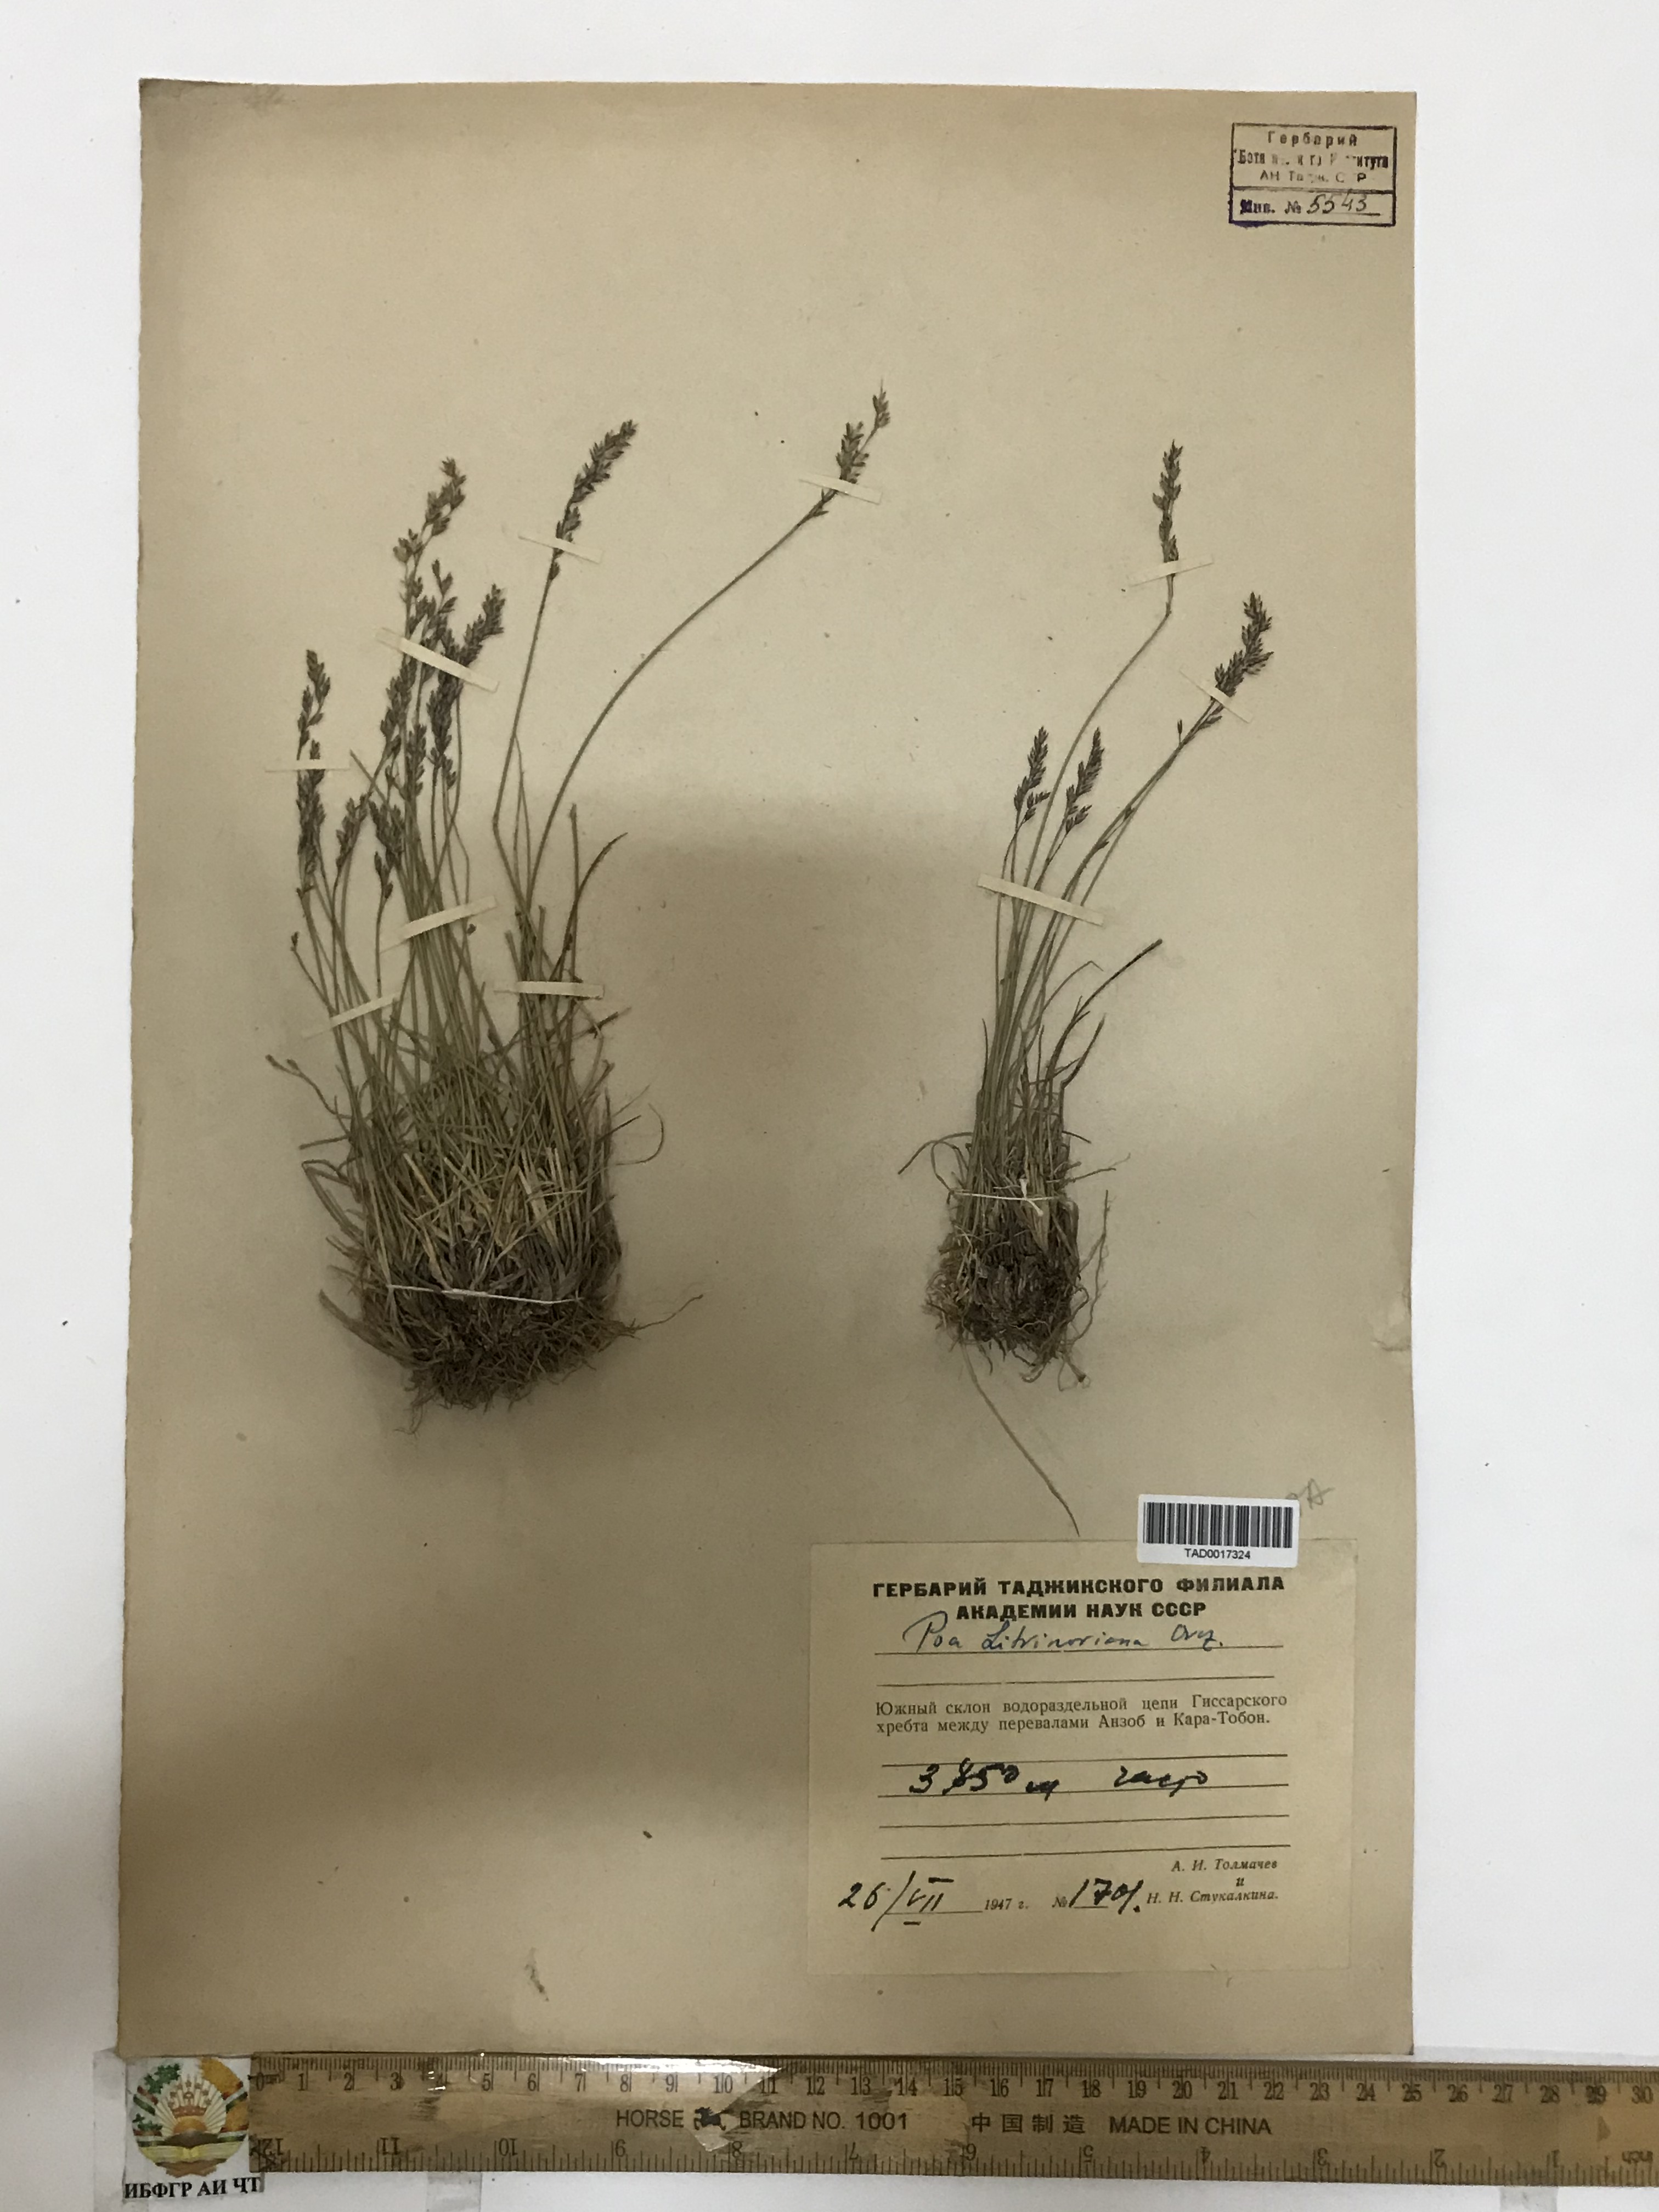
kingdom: Plantae
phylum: Tracheophyta
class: Liliopsida
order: Poales
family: Poaceae
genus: Poa
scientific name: Poa glauca
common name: Glaucous bluegrass
